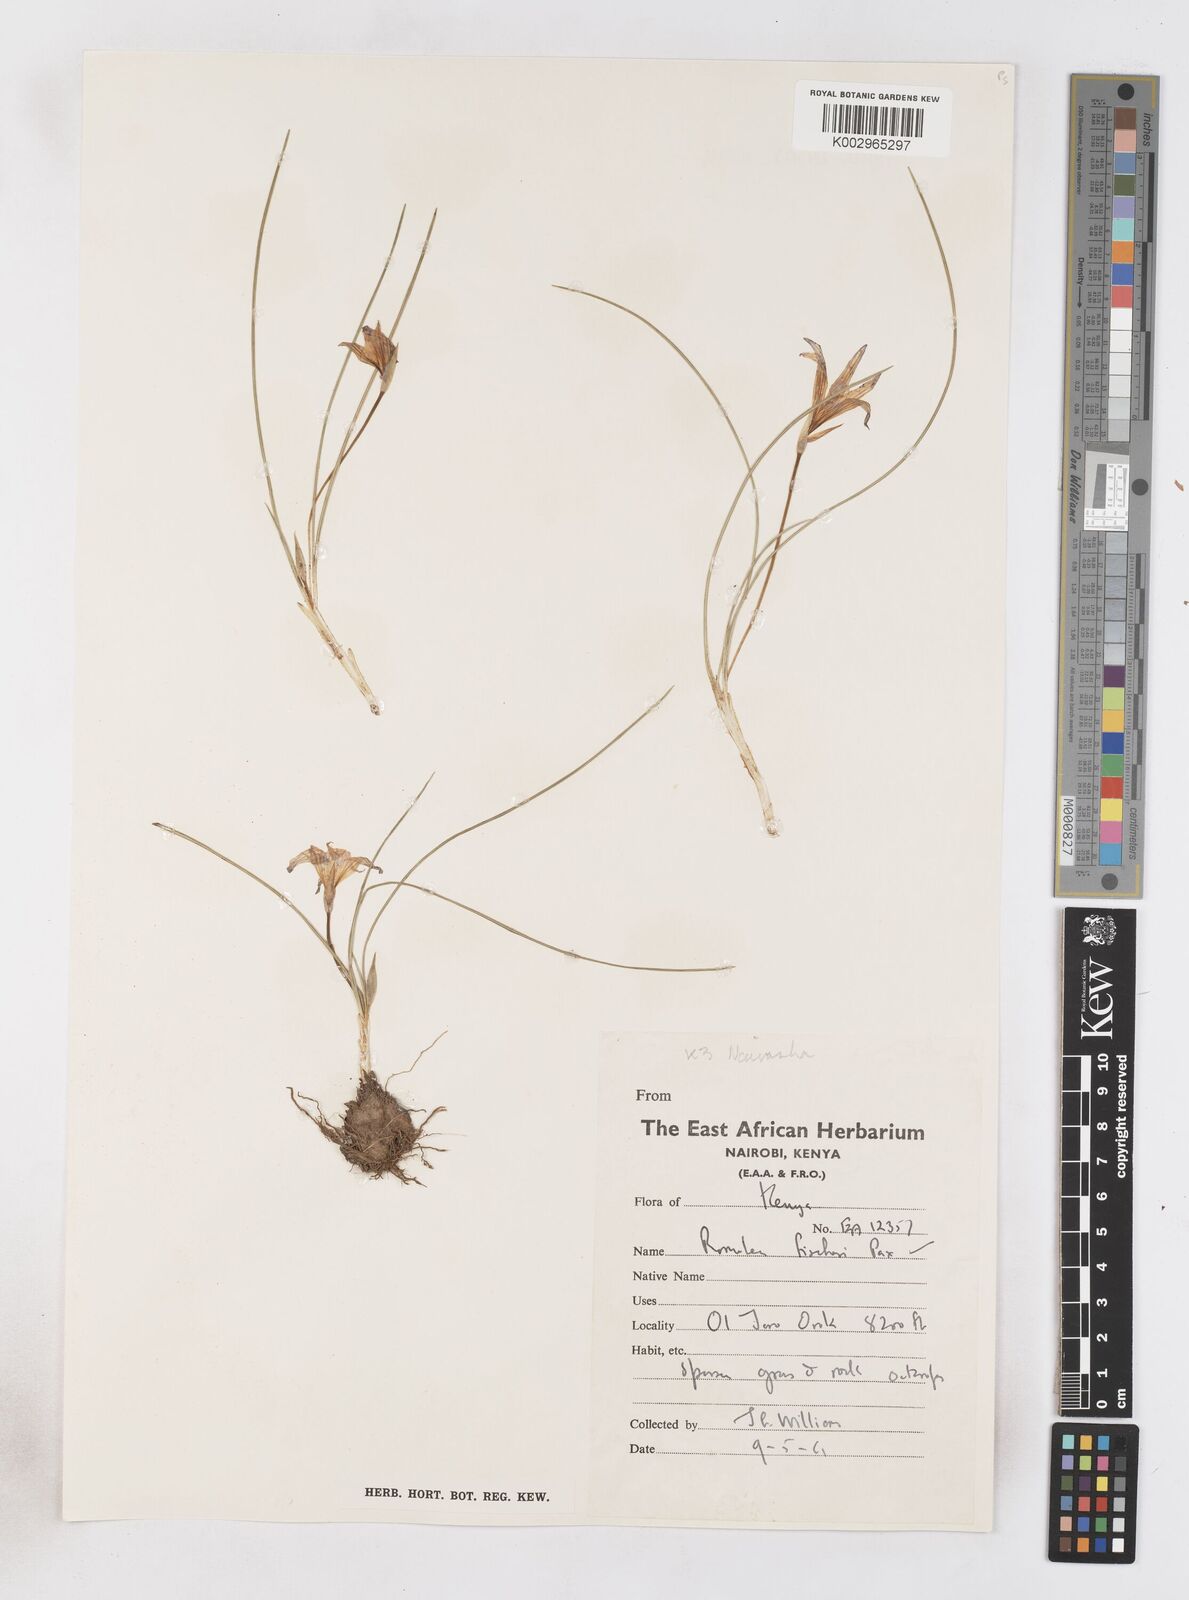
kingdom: Plantae
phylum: Tracheophyta
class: Liliopsida
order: Asparagales
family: Iridaceae
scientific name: Iridaceae
